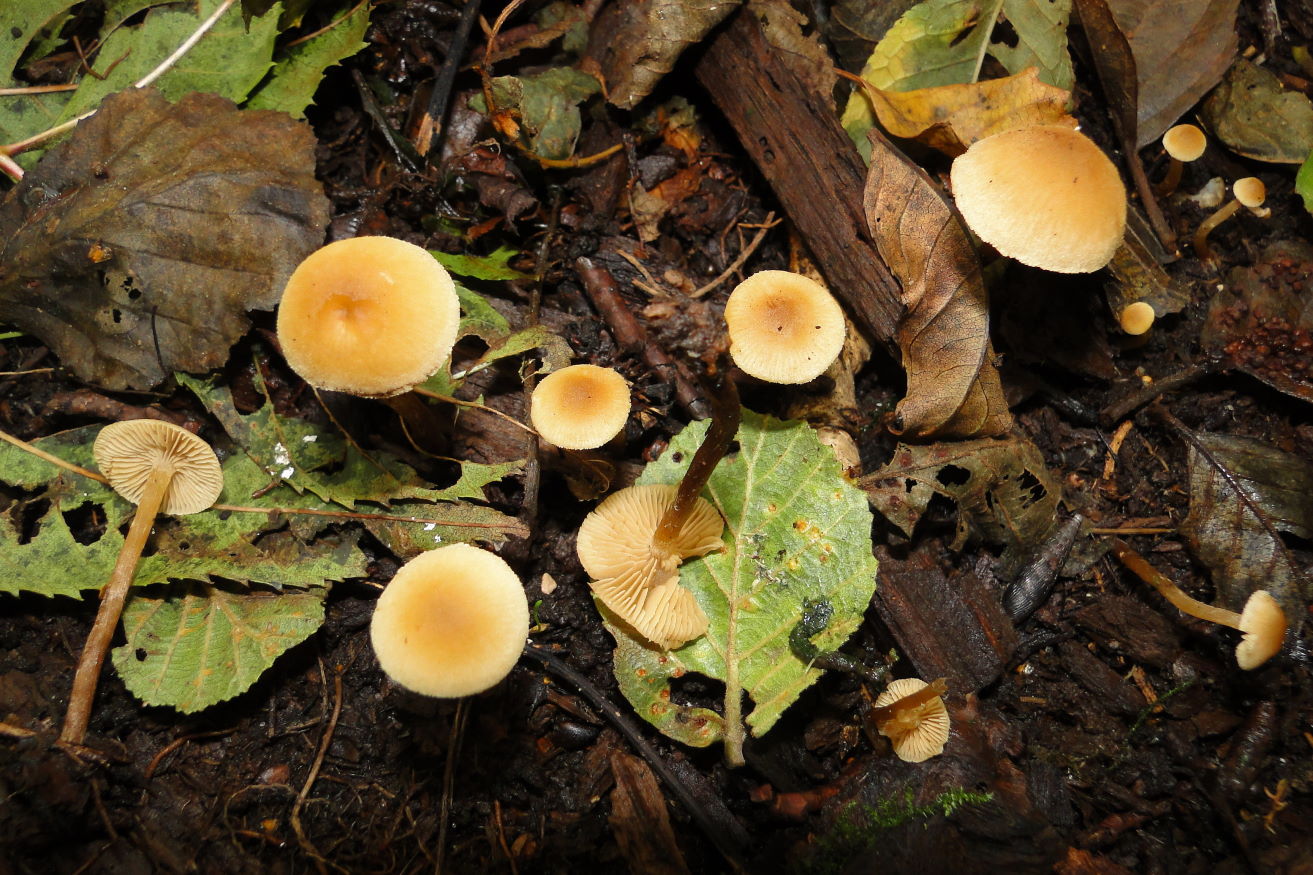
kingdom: Fungi
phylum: Basidiomycota
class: Agaricomycetes
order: Agaricales
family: Hymenogastraceae
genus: Naucoria
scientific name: Naucoria escharioides
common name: lys elle-knaphat
